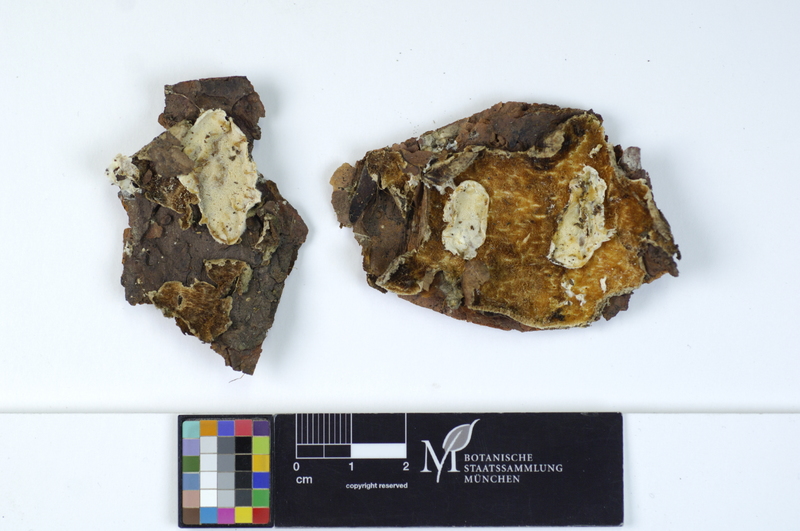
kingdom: Plantae
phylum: Tracheophyta
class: Pinopsida
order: Pinales
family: Pinaceae
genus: Pinus
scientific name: Pinus
